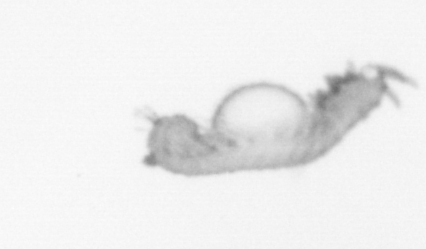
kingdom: Animalia
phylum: Annelida
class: Polychaeta
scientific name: Polychaeta
